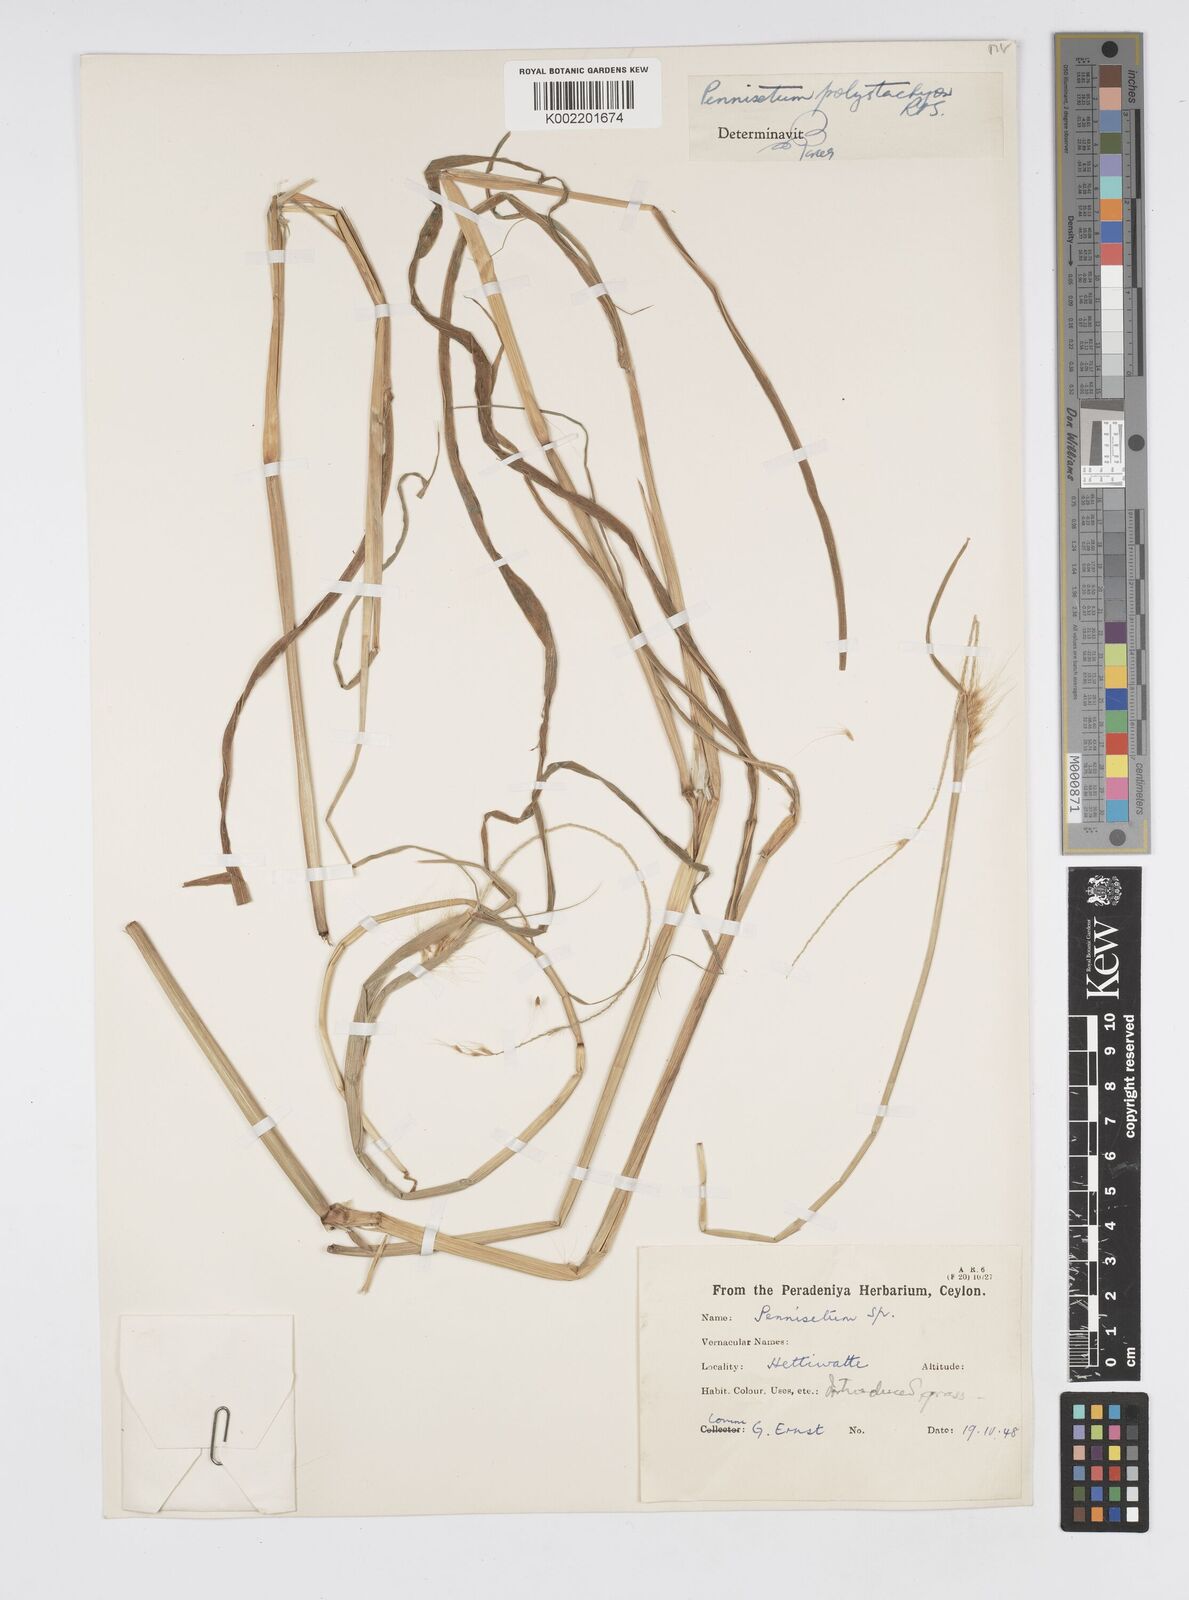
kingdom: Plantae
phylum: Tracheophyta
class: Liliopsida
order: Poales
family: Poaceae
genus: Setaria
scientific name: Setaria parviflora
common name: Knotroot bristle-grass
